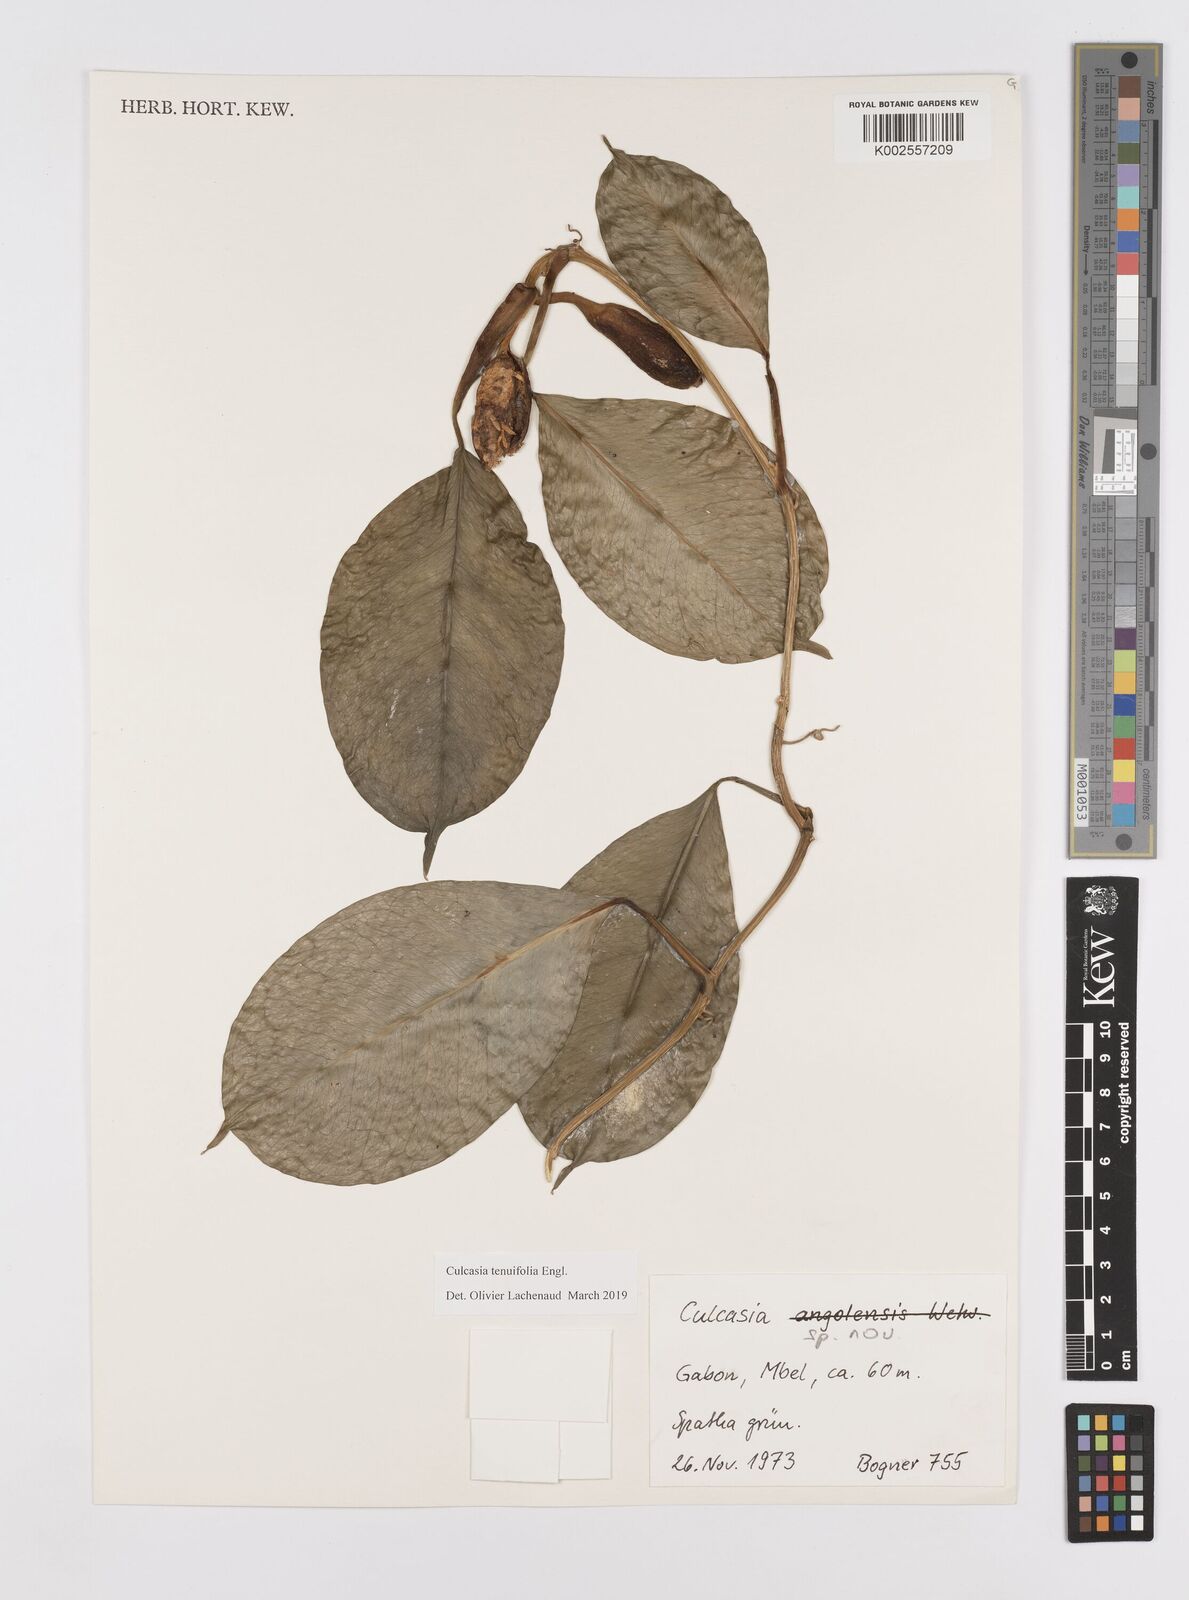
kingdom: Plantae
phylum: Tracheophyta
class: Liliopsida
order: Alismatales
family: Araceae
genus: Culcasia
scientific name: Culcasia tenuifolia
